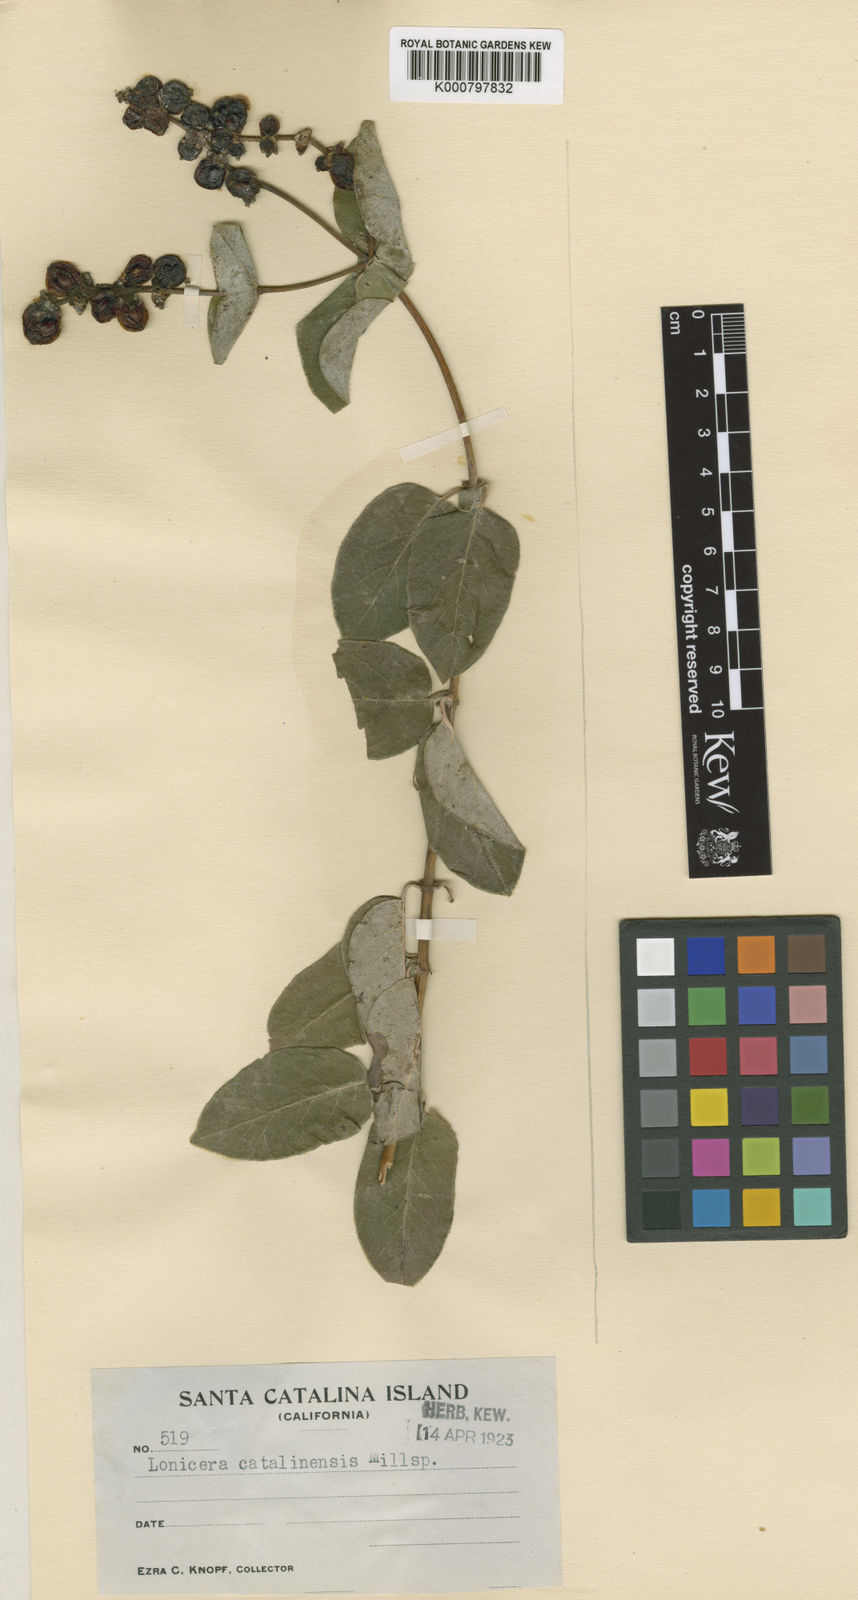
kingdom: Plantae
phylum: Tracheophyta
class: Magnoliopsida
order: Dipsacales
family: Caprifoliaceae
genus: Lonicera
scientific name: Lonicera catalinensis
